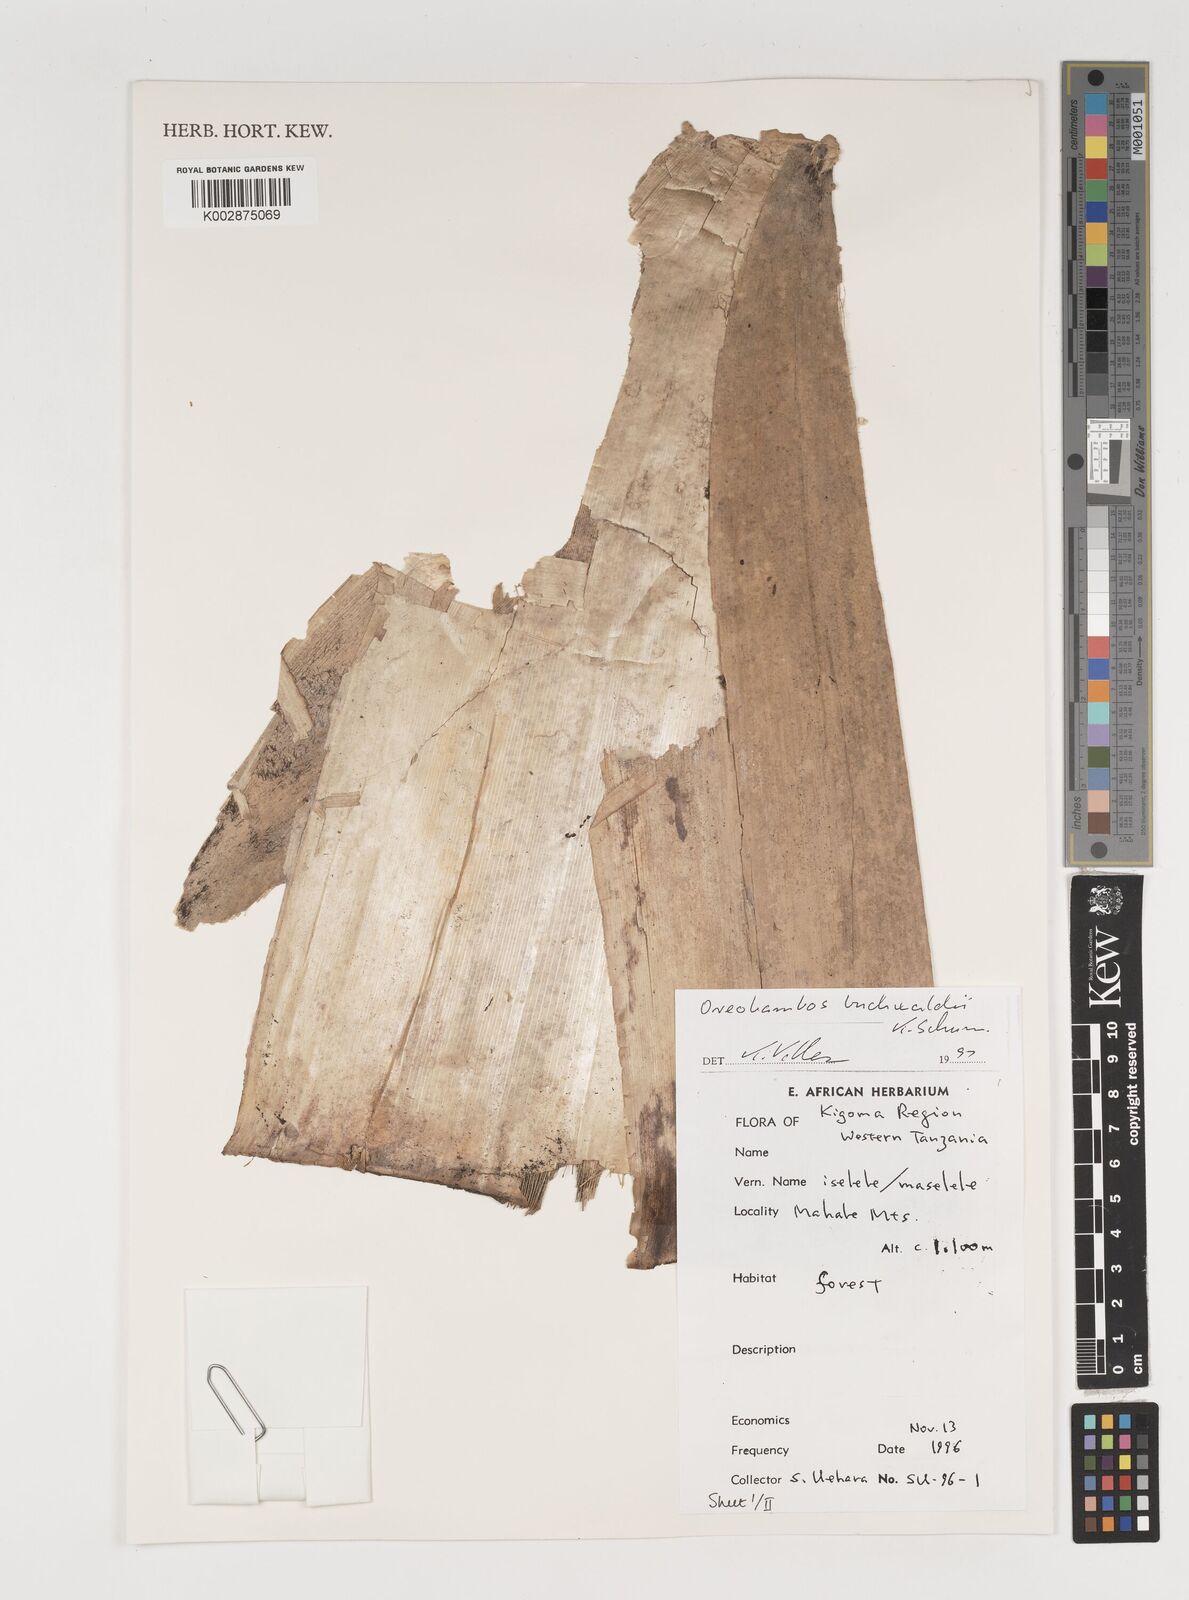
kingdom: Plantae
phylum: Tracheophyta
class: Liliopsida
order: Poales
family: Poaceae
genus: Oreobambos
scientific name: Oreobambos
